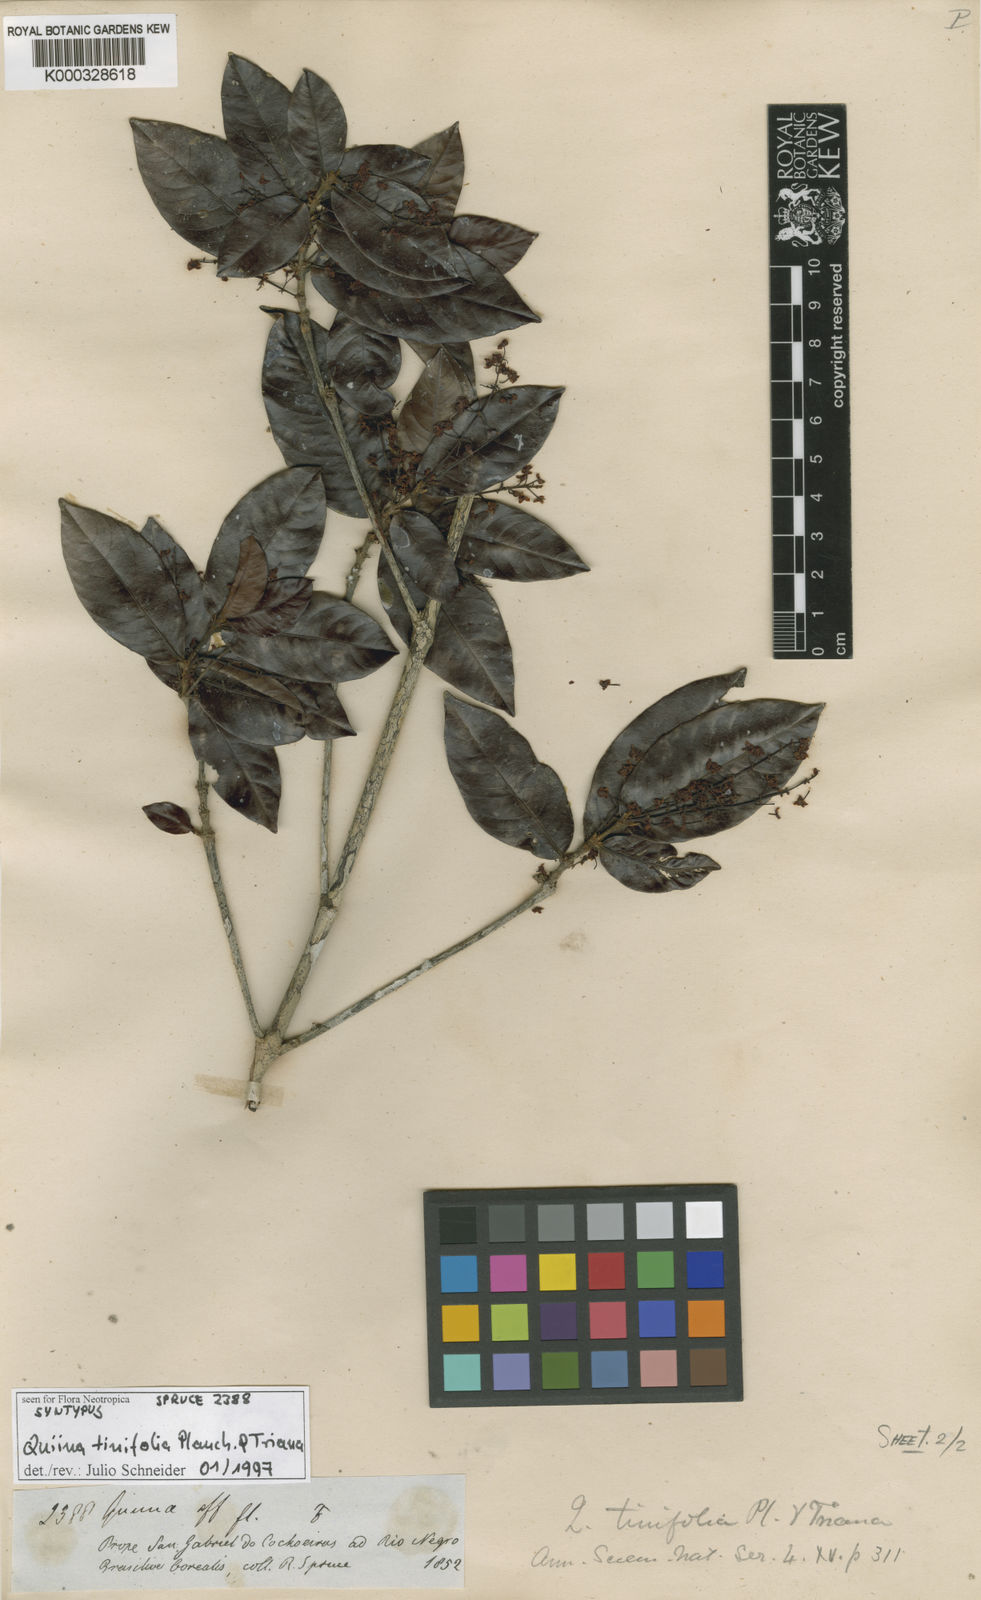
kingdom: Plantae
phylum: Tracheophyta
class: Magnoliopsida
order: Malpighiales
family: Quiinaceae
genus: Quiina
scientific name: Quiina tinifolia
